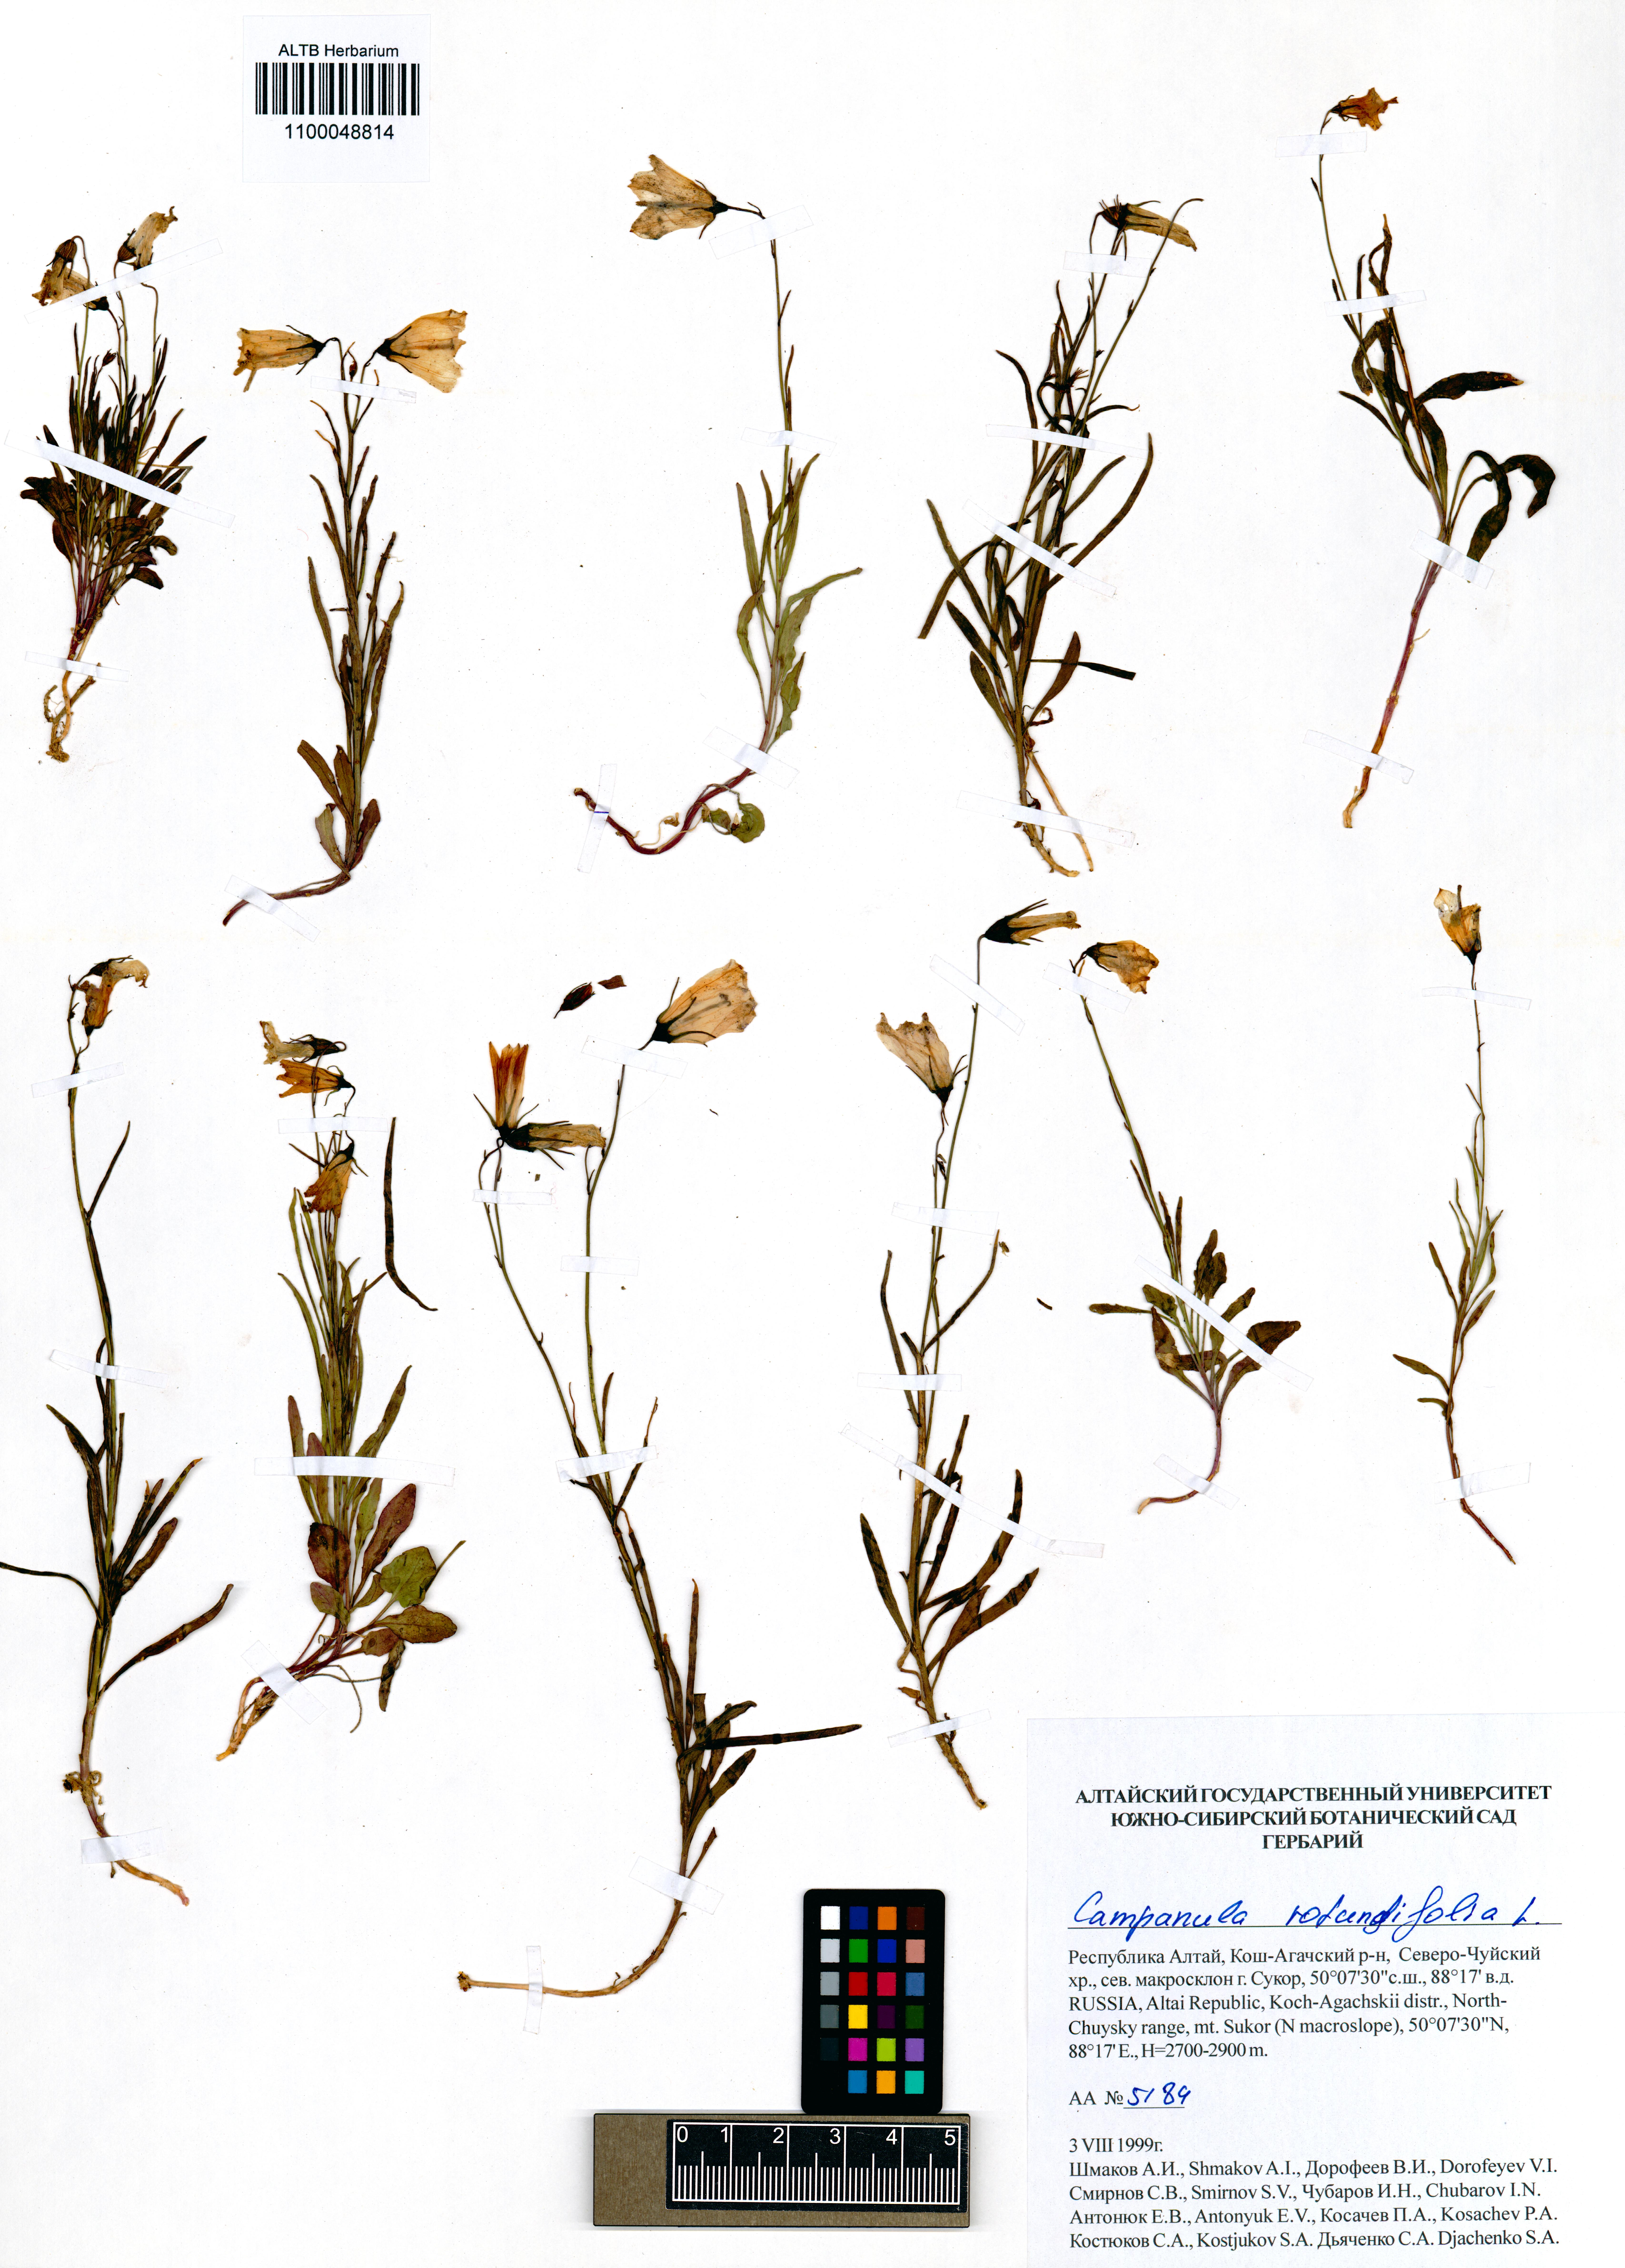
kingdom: Plantae
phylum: Tracheophyta
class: Magnoliopsida
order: Asterales
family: Campanulaceae
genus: Campanula
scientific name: Campanula rotundifolia
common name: Harebell
